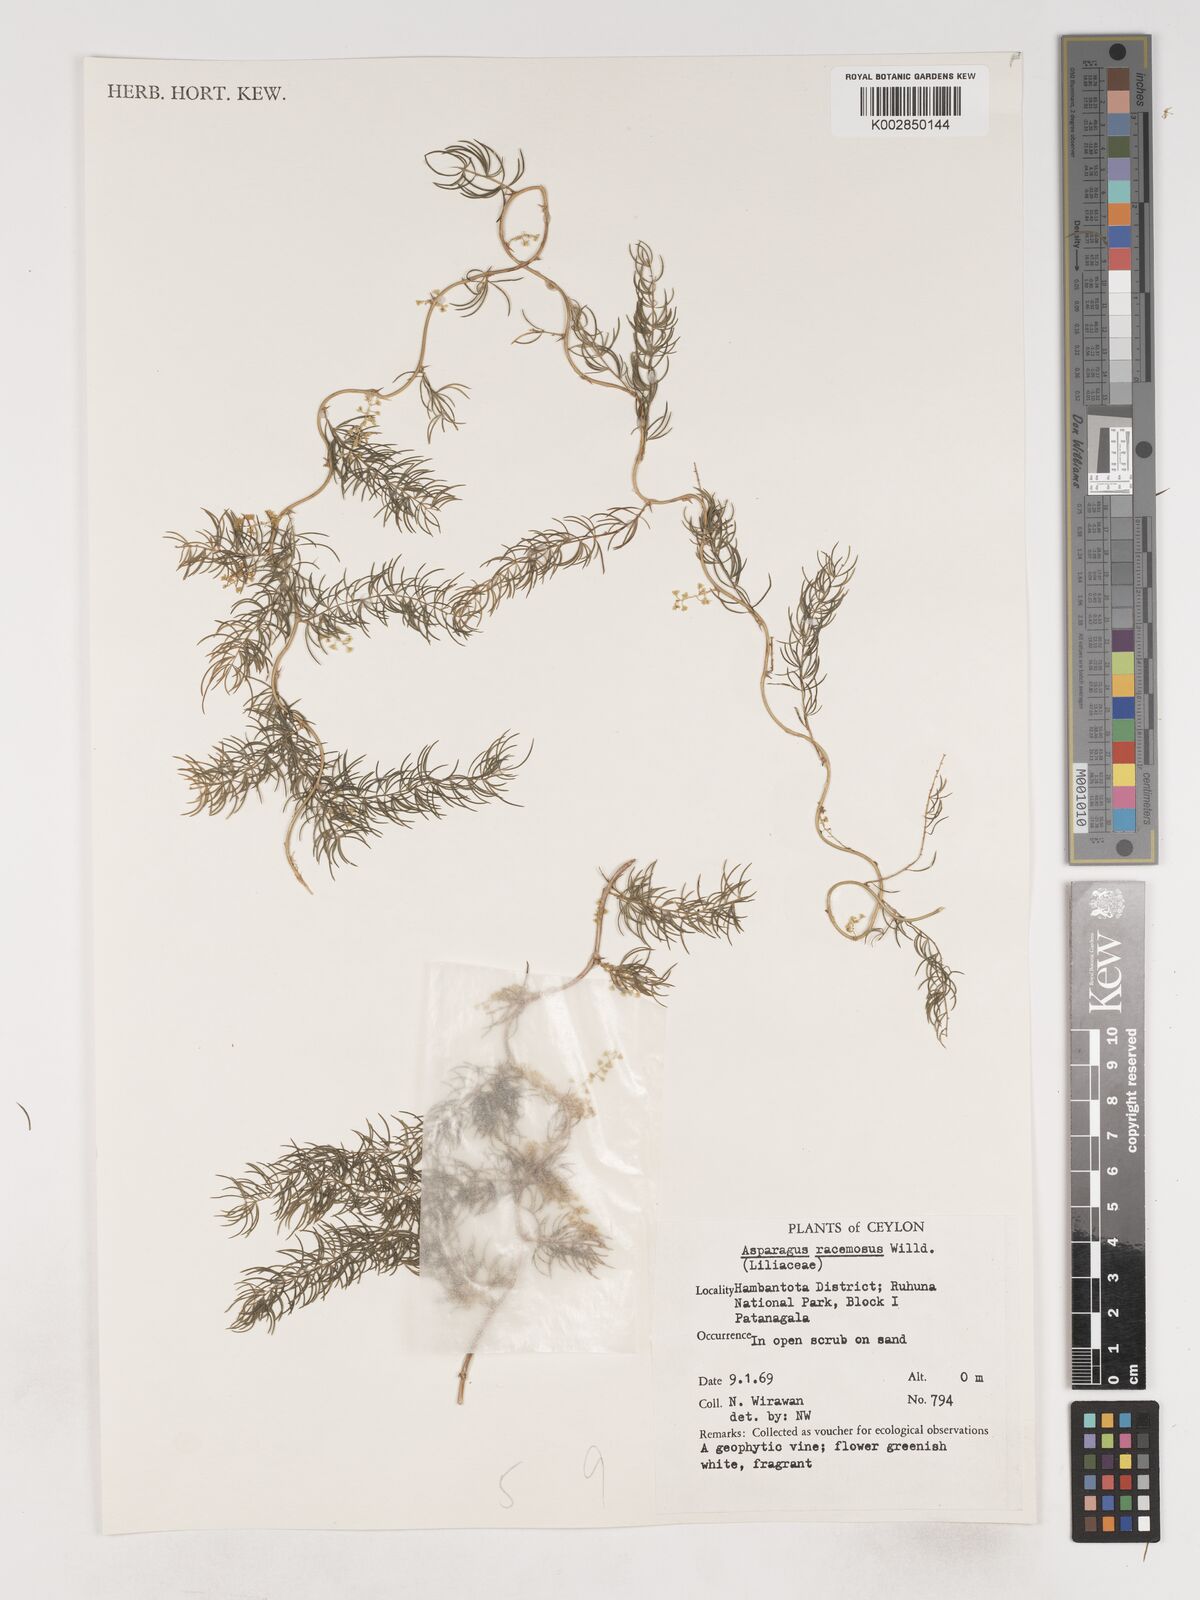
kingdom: Plantae
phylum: Tracheophyta
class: Liliopsida
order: Asparagales
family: Asparagaceae
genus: Asparagus
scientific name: Asparagus racemosus
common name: Asparagus-fern
